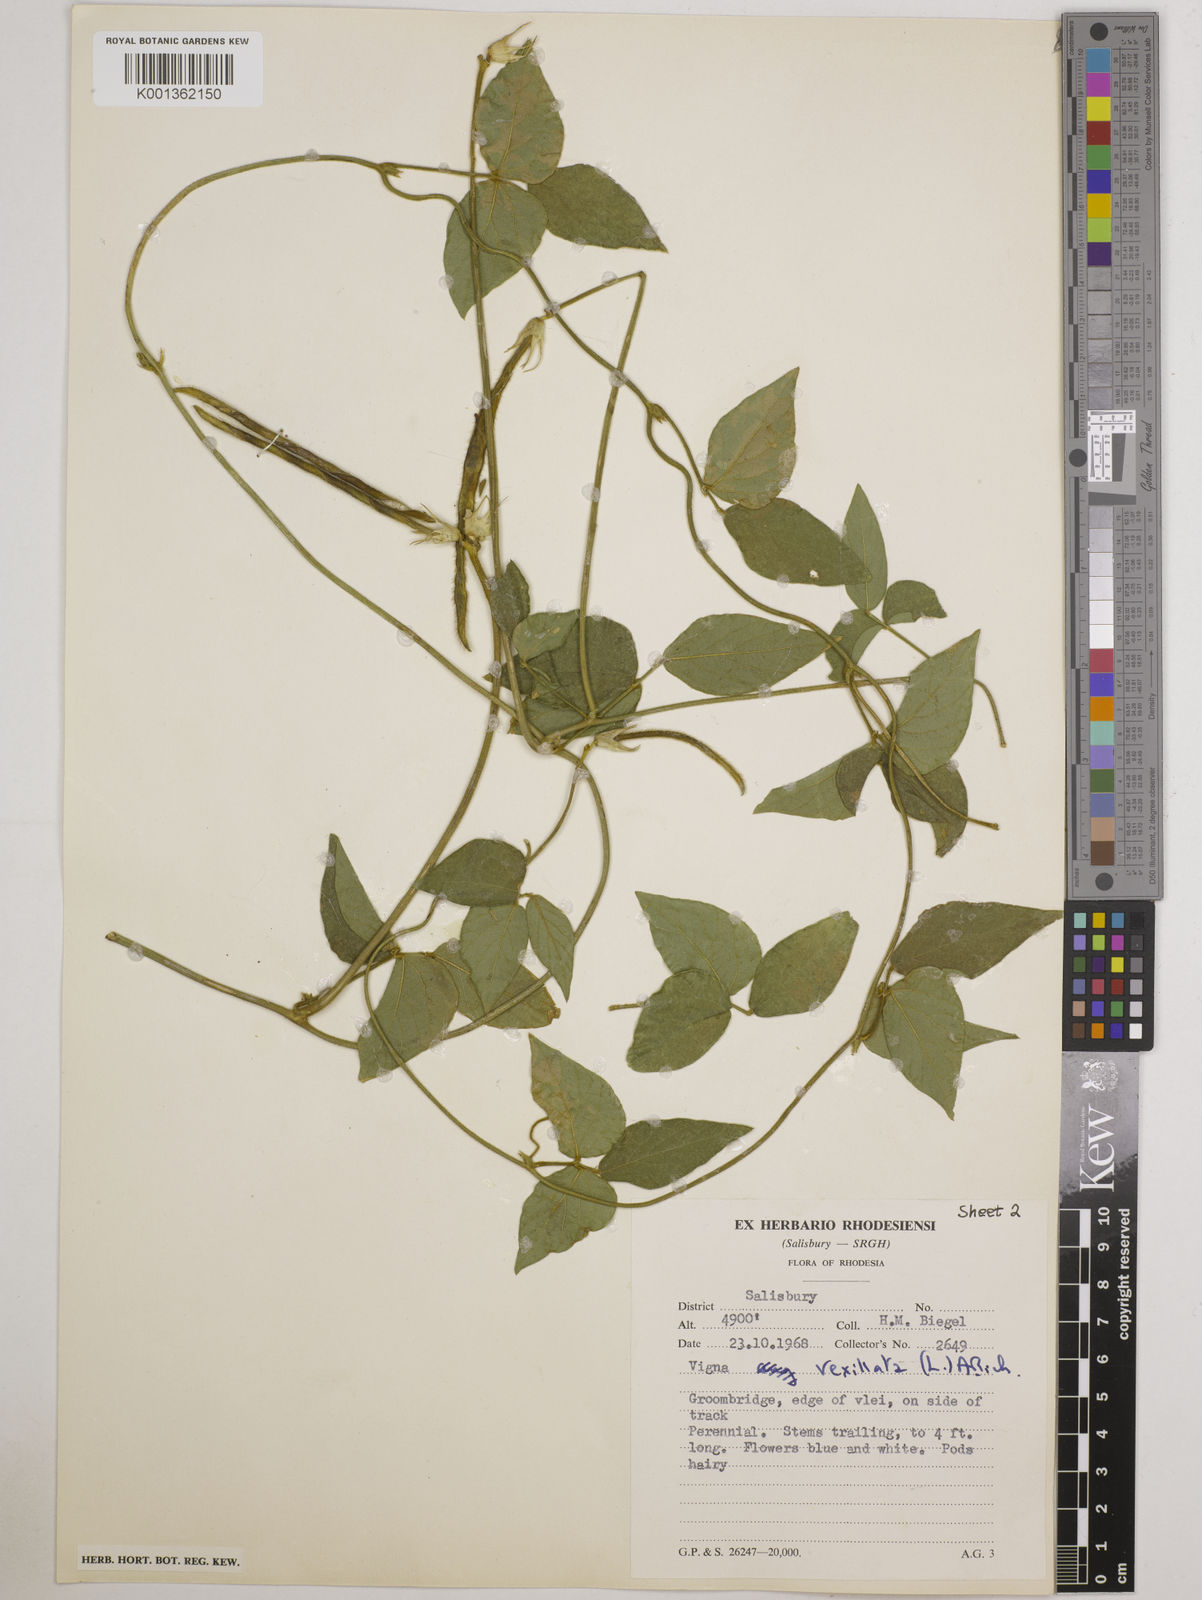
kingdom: Plantae
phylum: Tracheophyta
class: Magnoliopsida
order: Fabales
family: Fabaceae
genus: Vigna
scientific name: Vigna vexillata
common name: Zombi pea
